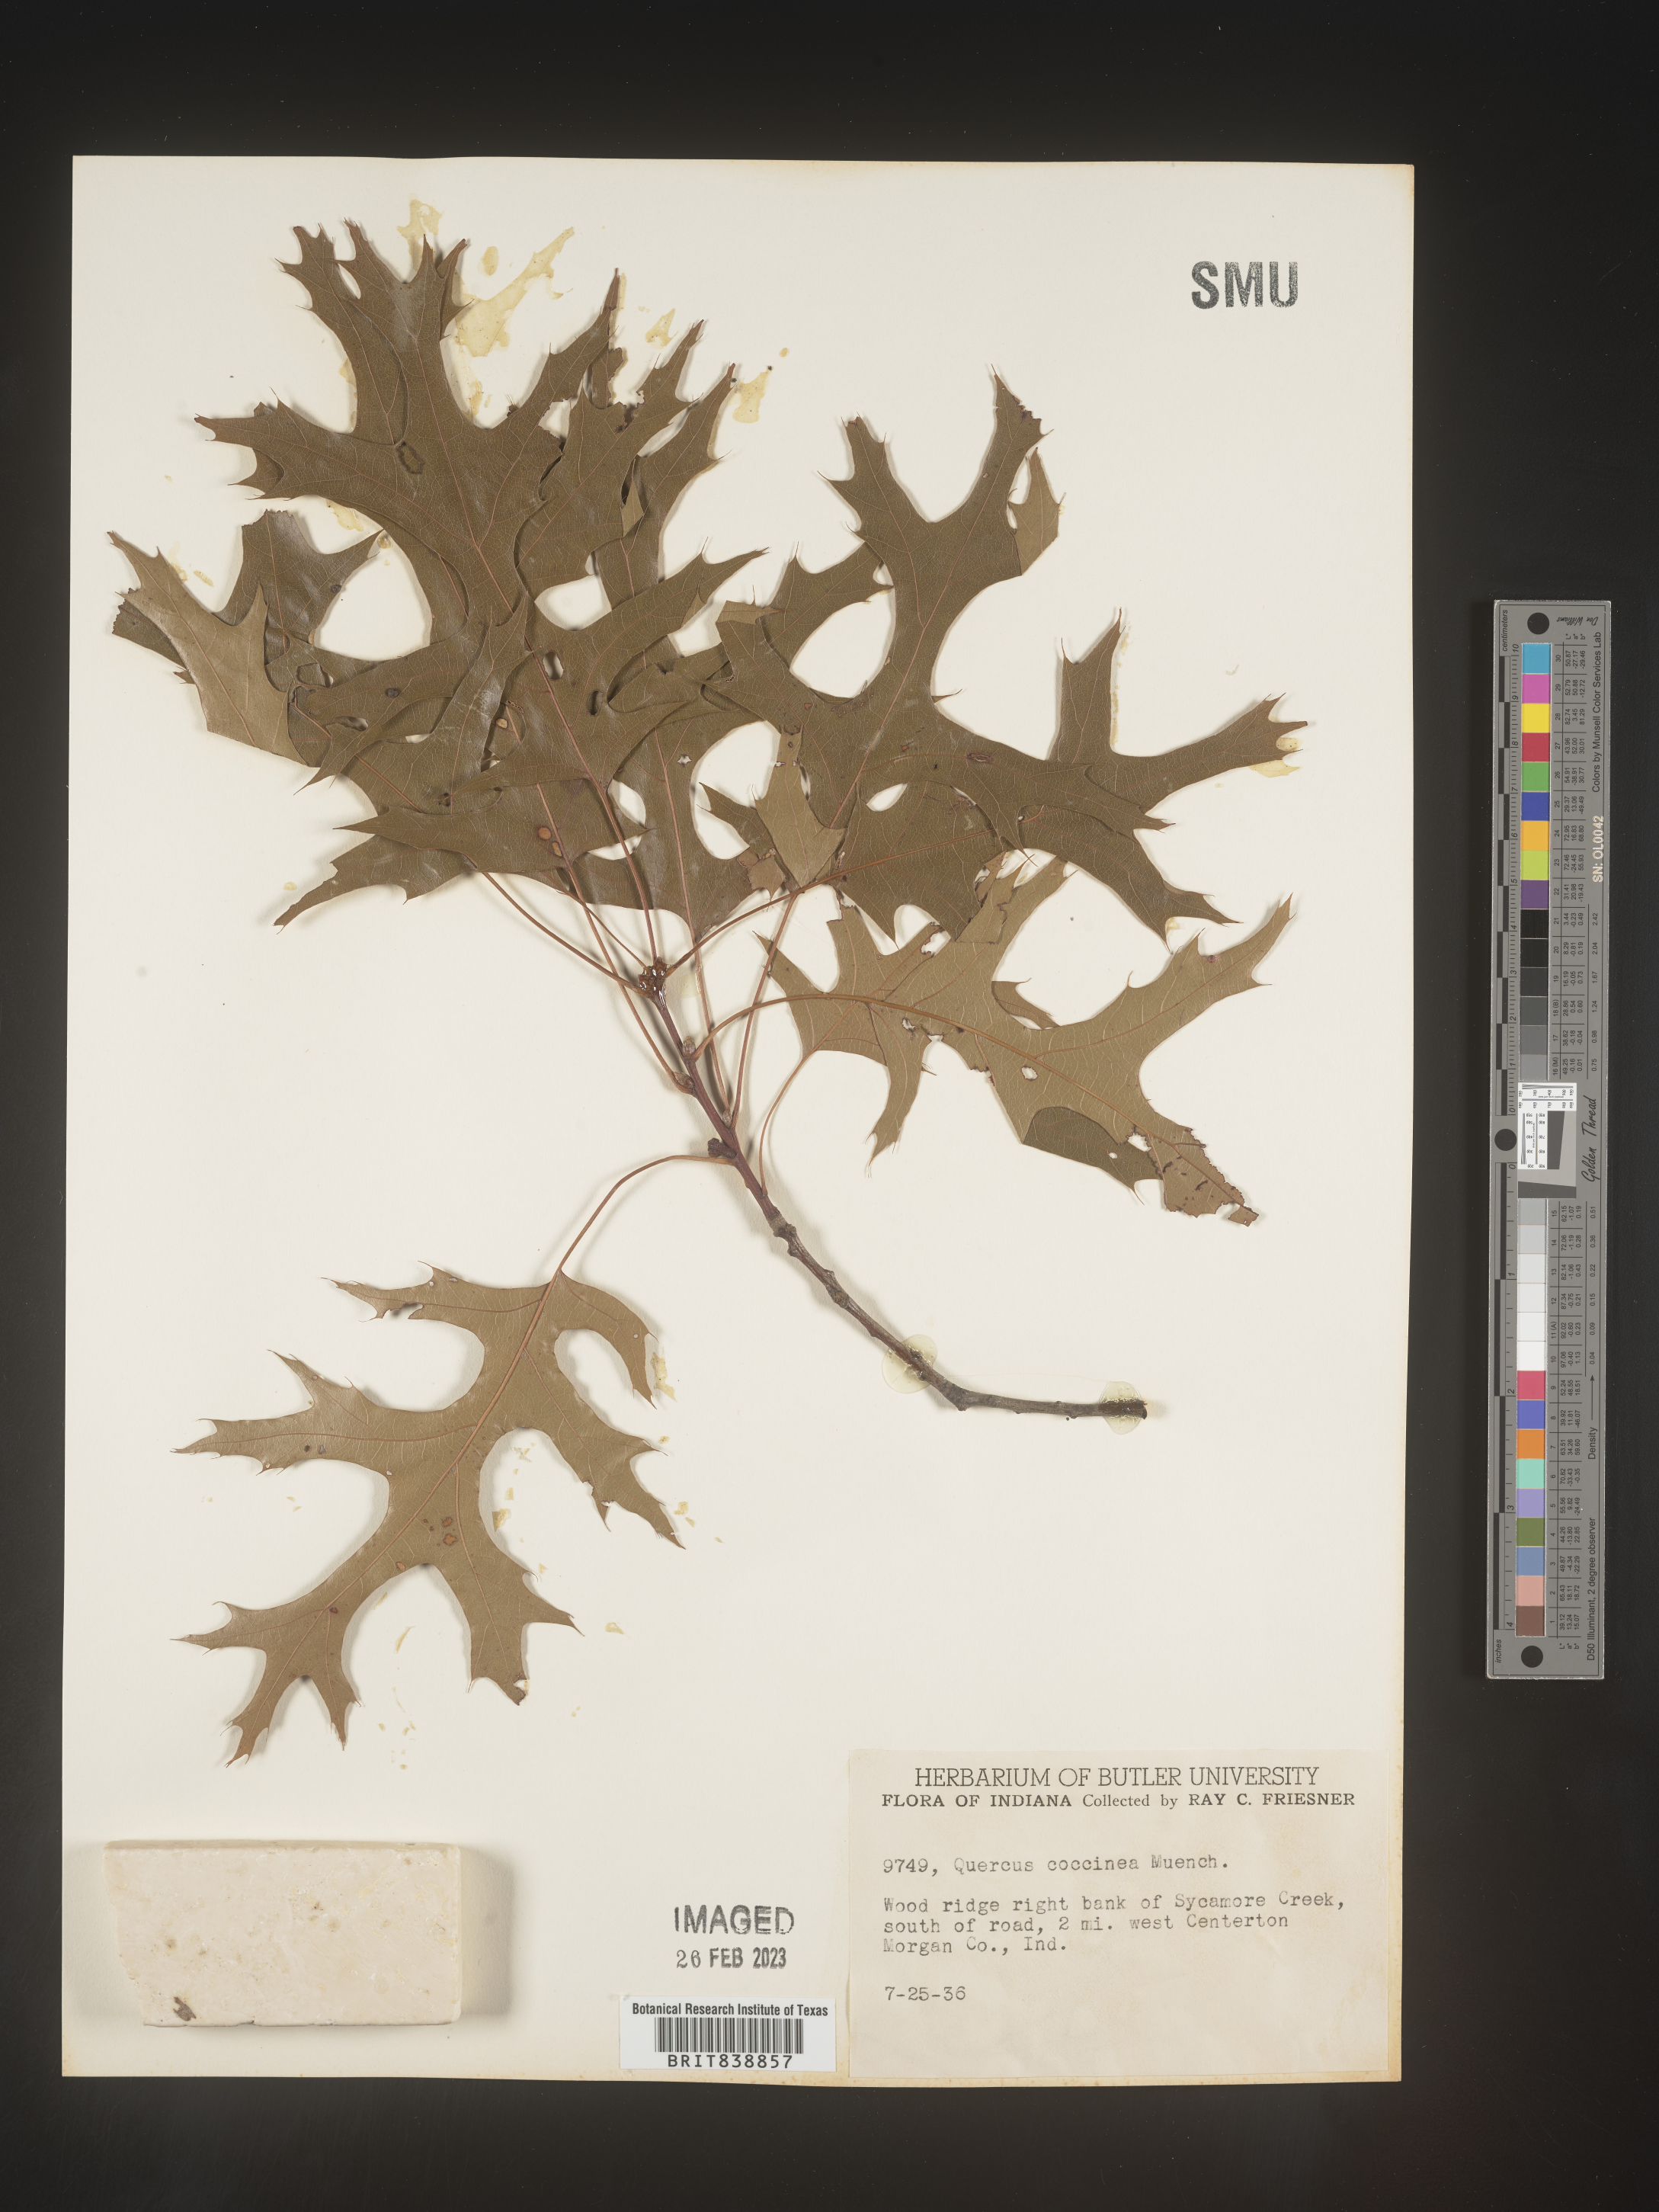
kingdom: Plantae
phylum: Tracheophyta
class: Magnoliopsida
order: Fagales
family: Fagaceae
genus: Quercus
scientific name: Quercus coccinea
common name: Scarlet oak
